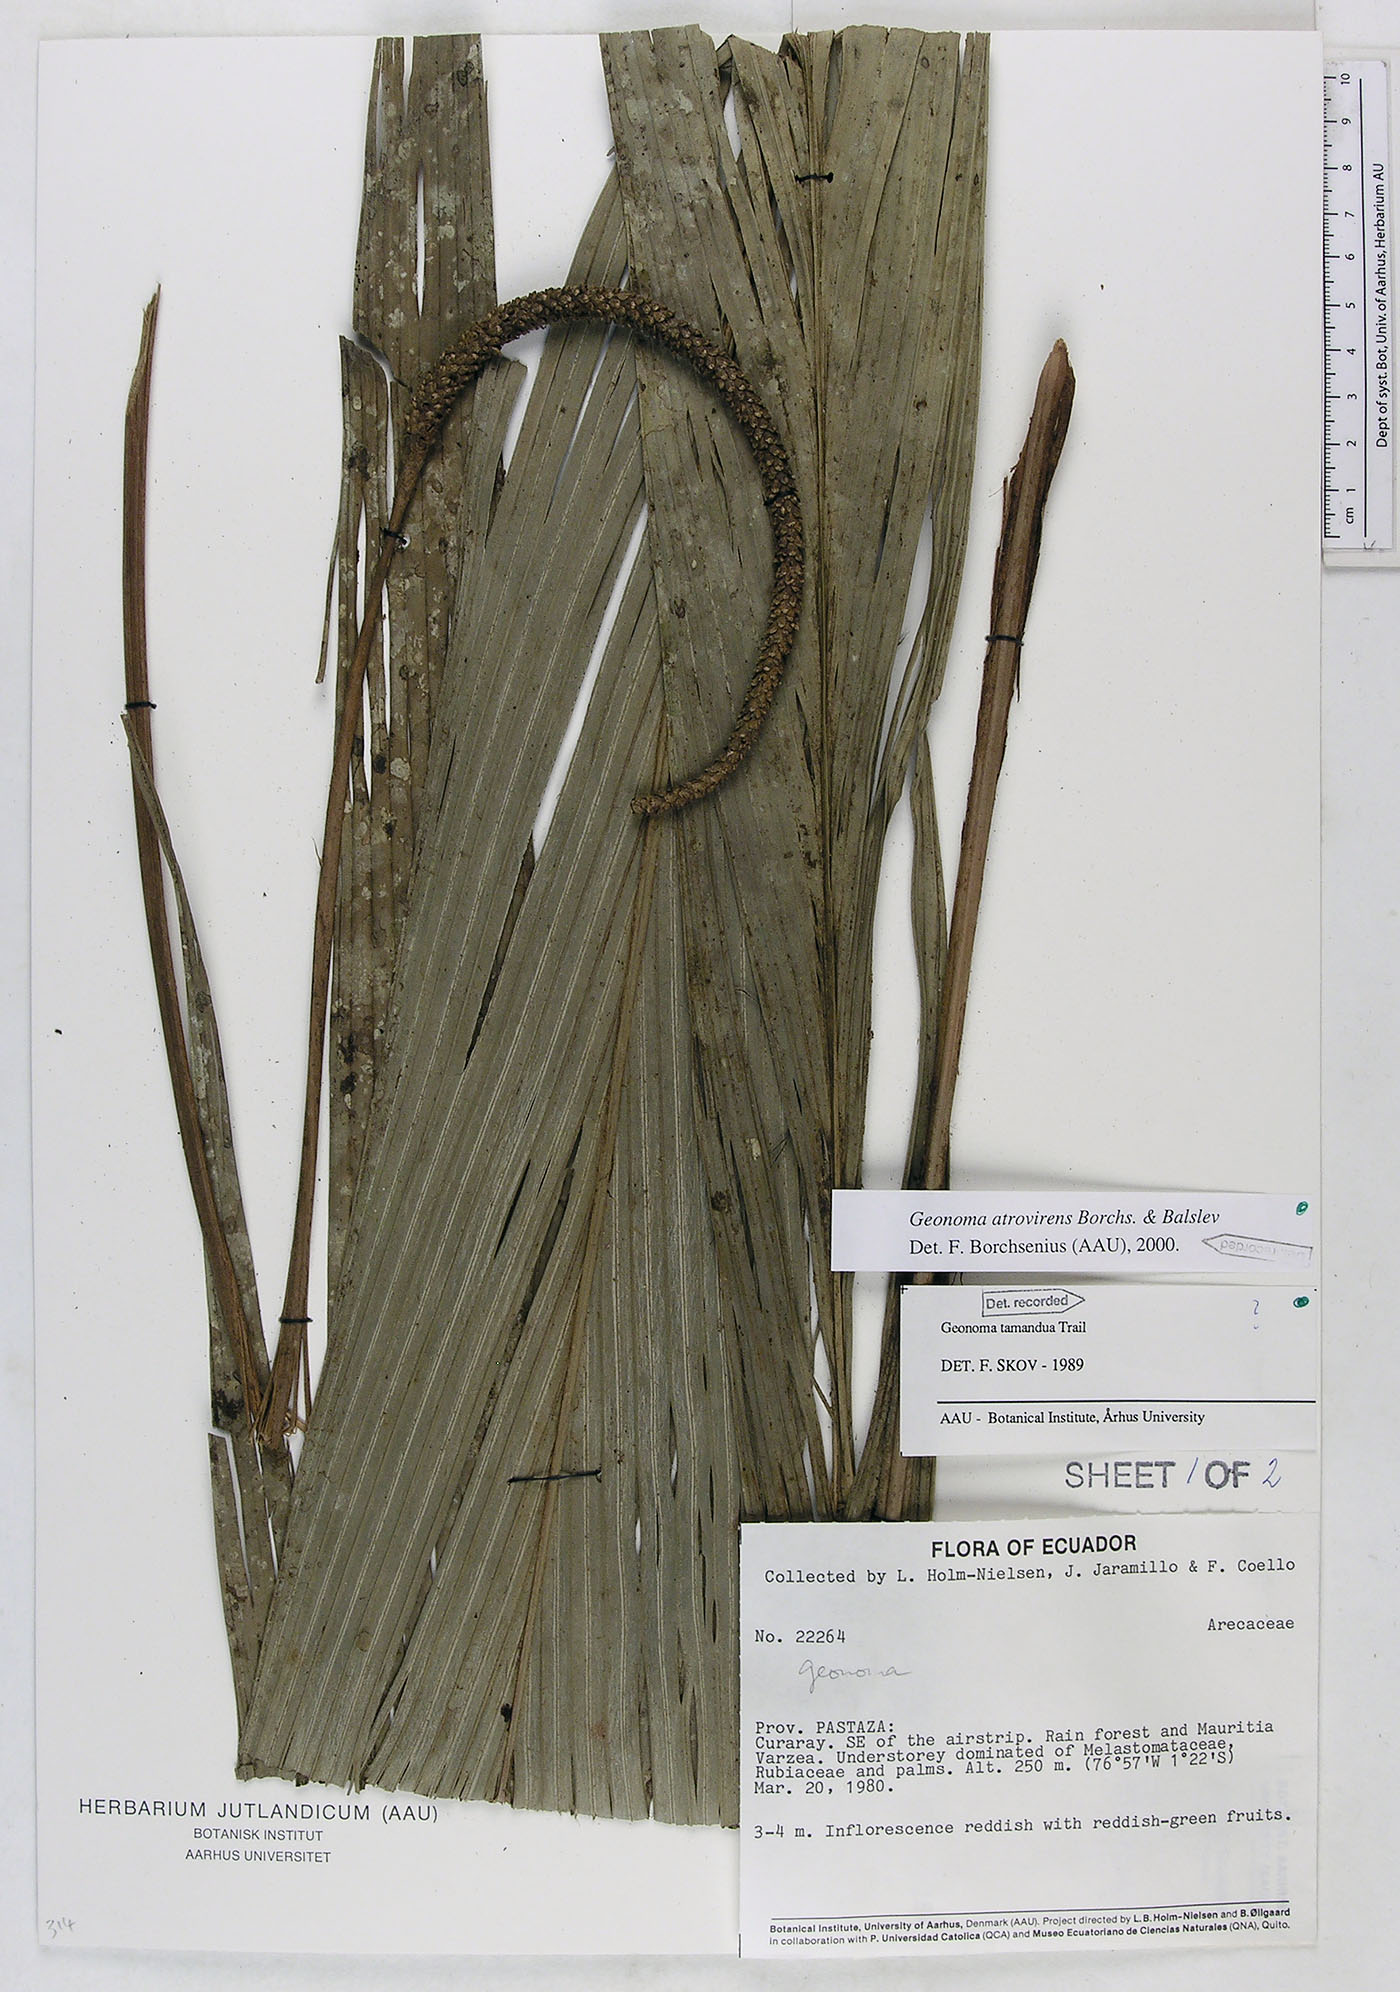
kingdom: Plantae
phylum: Tracheophyta
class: Liliopsida
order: Arecales
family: Arecaceae
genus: Geonoma
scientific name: Geonoma macrostachys
